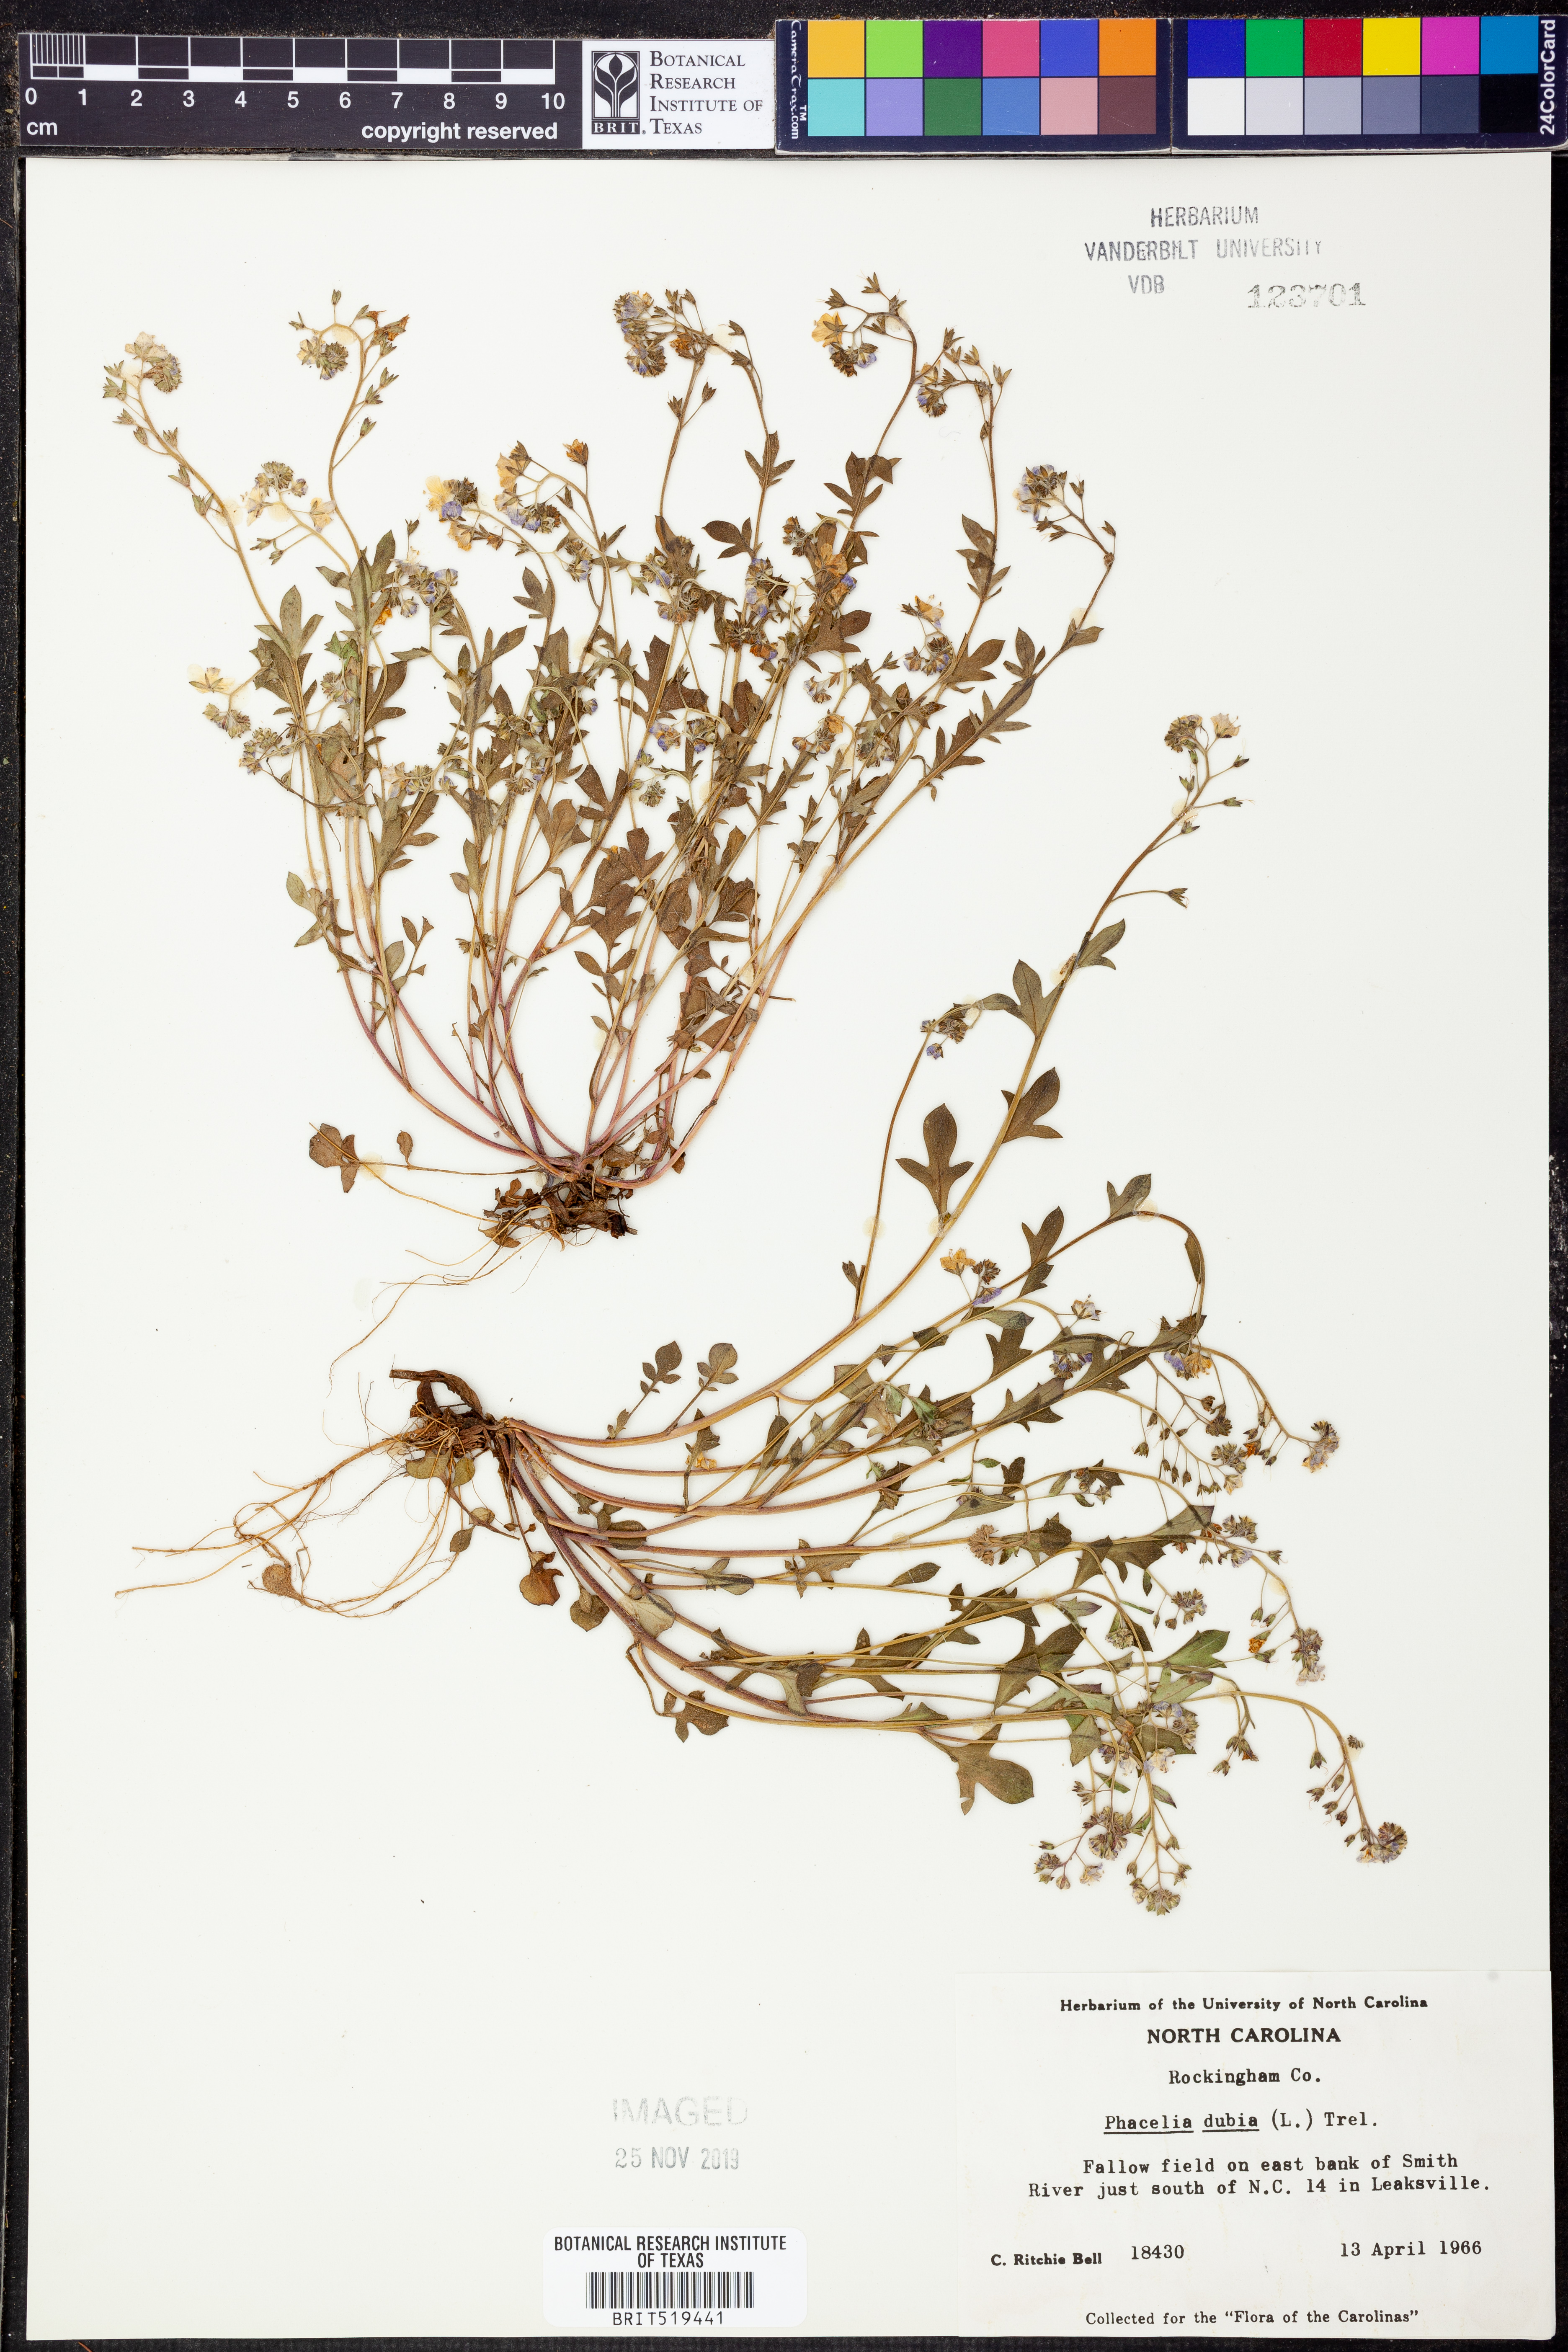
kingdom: Plantae
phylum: Tracheophyta
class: Magnoliopsida
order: Boraginales
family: Hydrophyllaceae
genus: Phacelia
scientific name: Phacelia dubia
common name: Appalachian phacelia
